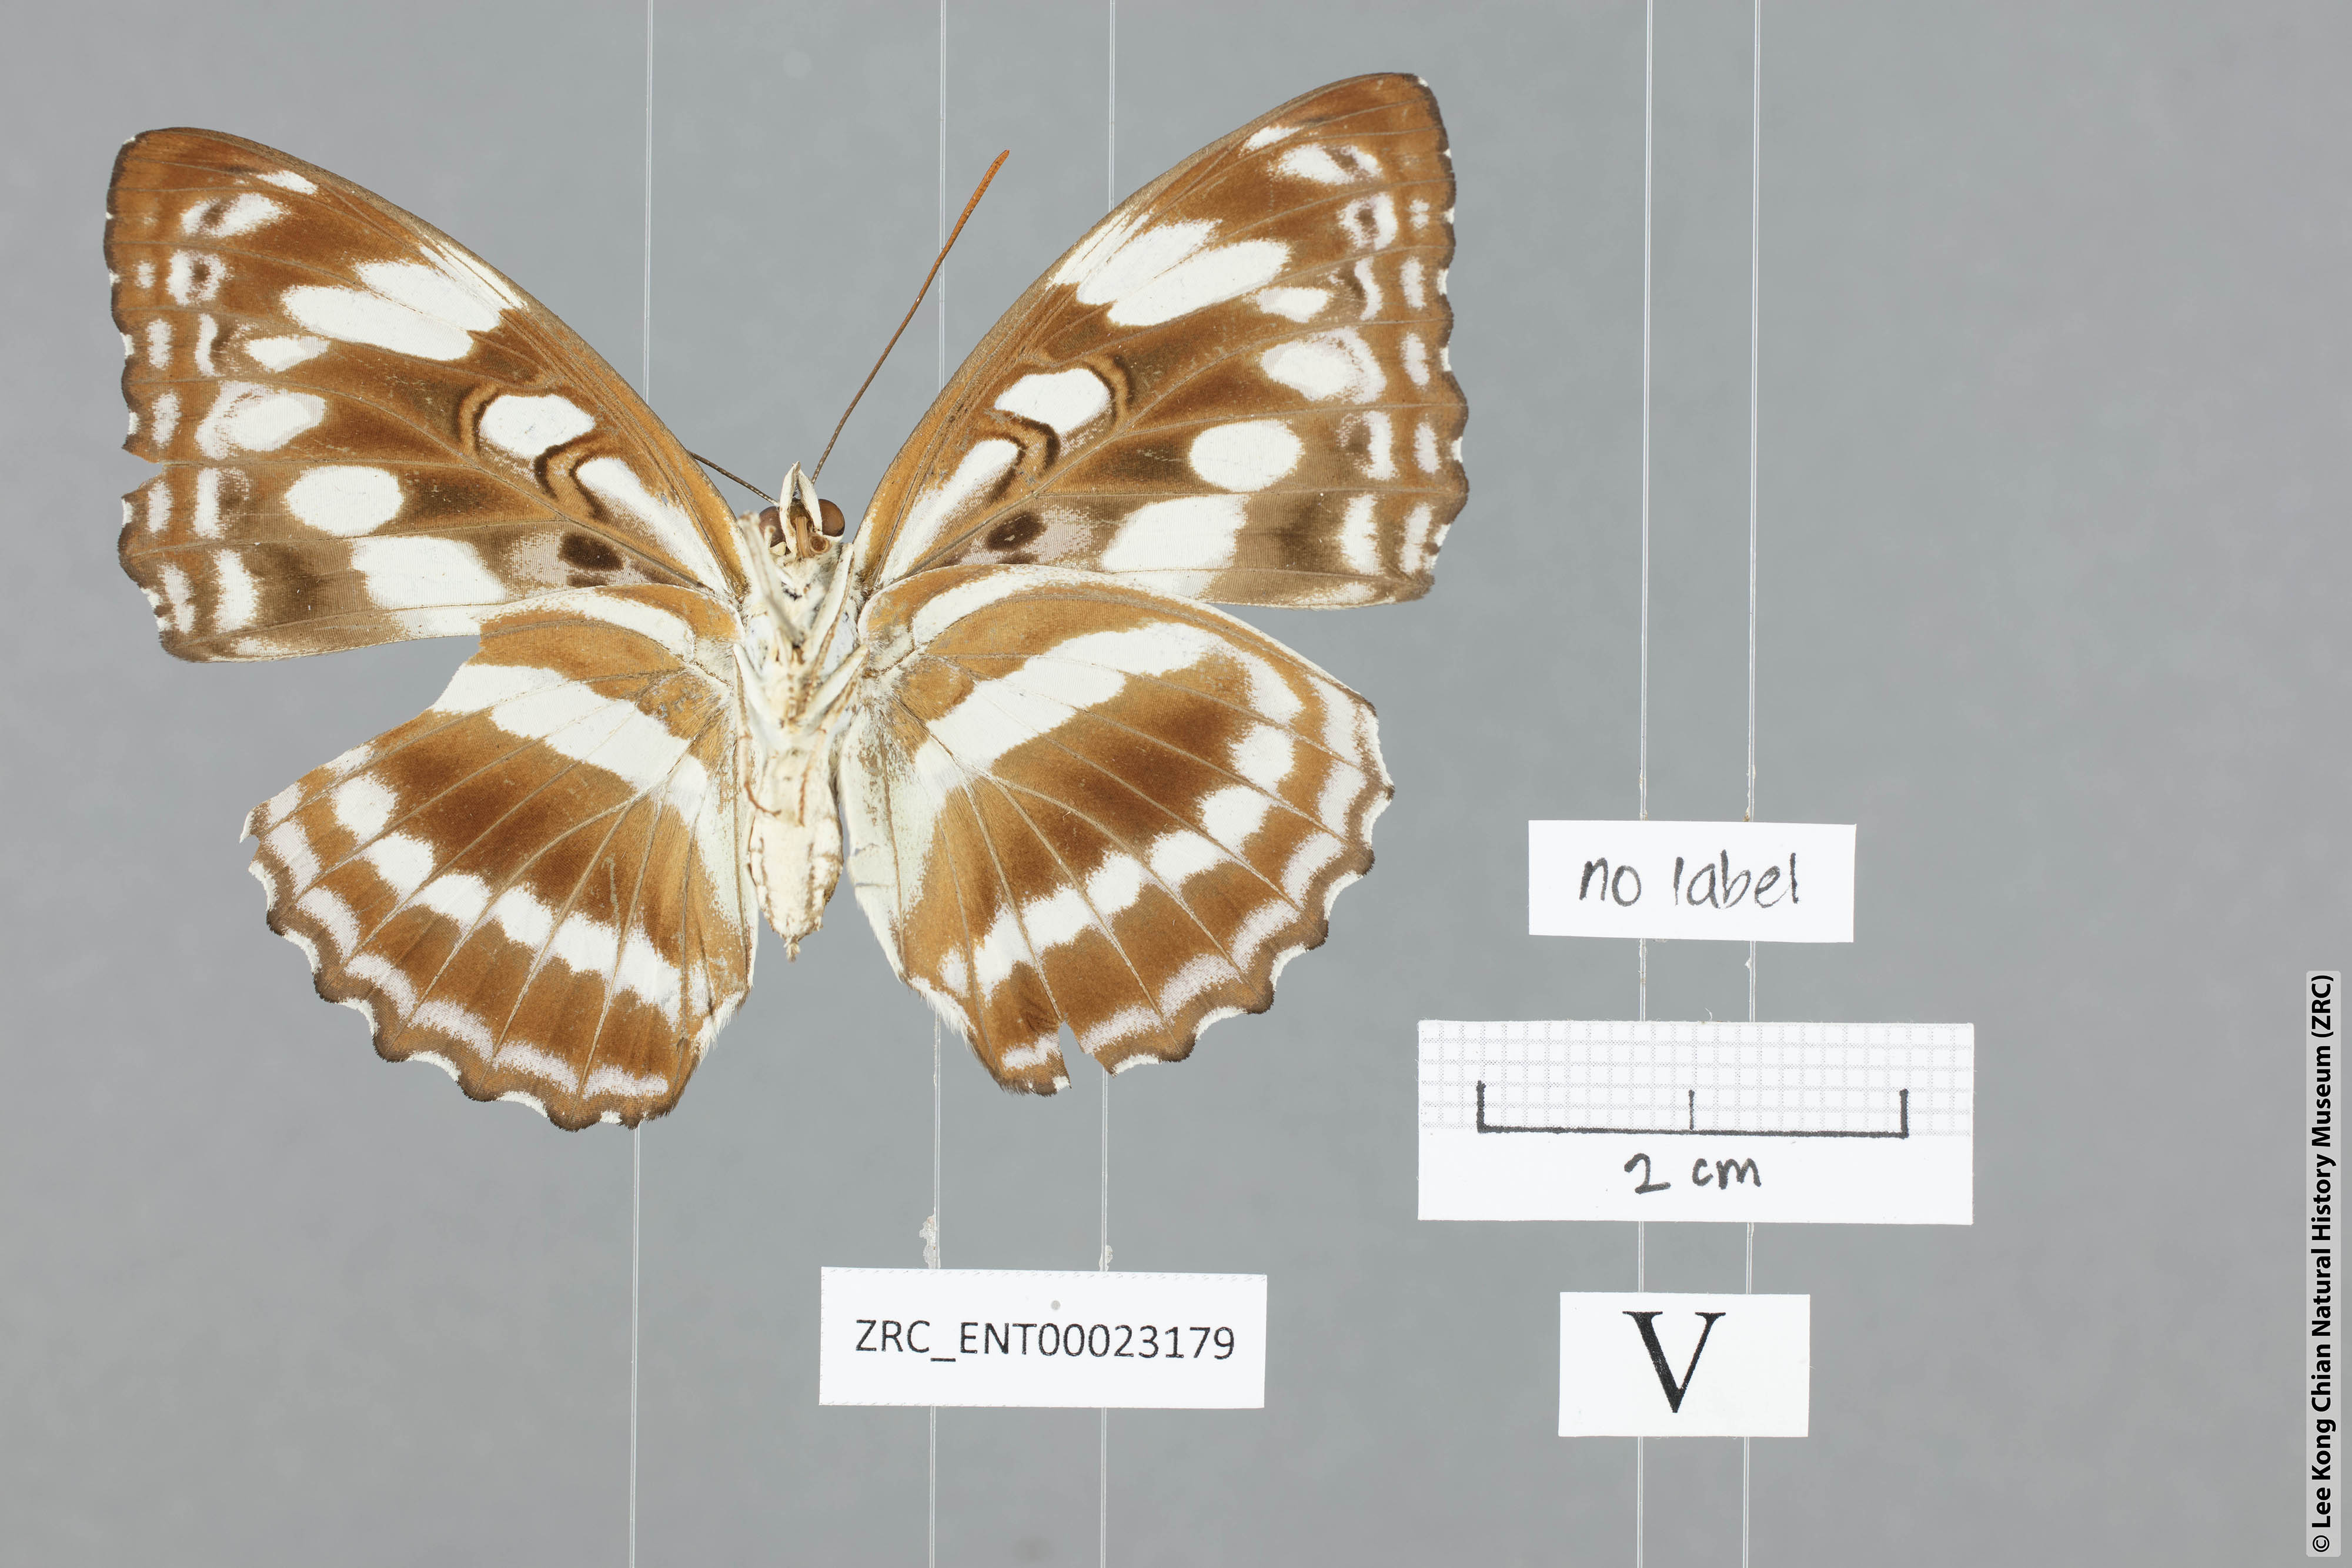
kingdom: Animalia
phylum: Arthropoda
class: Insecta
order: Lepidoptera
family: Nymphalidae
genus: Parathyma
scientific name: Parathyma asura
